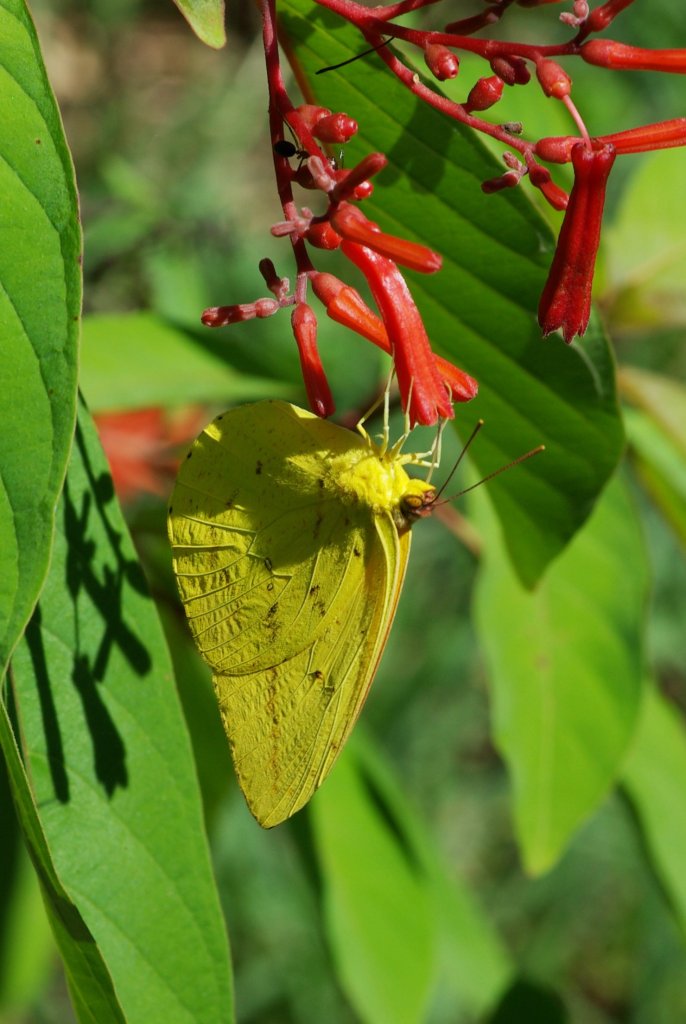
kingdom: Animalia
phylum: Arthropoda
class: Insecta
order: Lepidoptera
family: Pieridae
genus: Phoebis
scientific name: Phoebis agarithe
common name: Large Orange Sulphur
